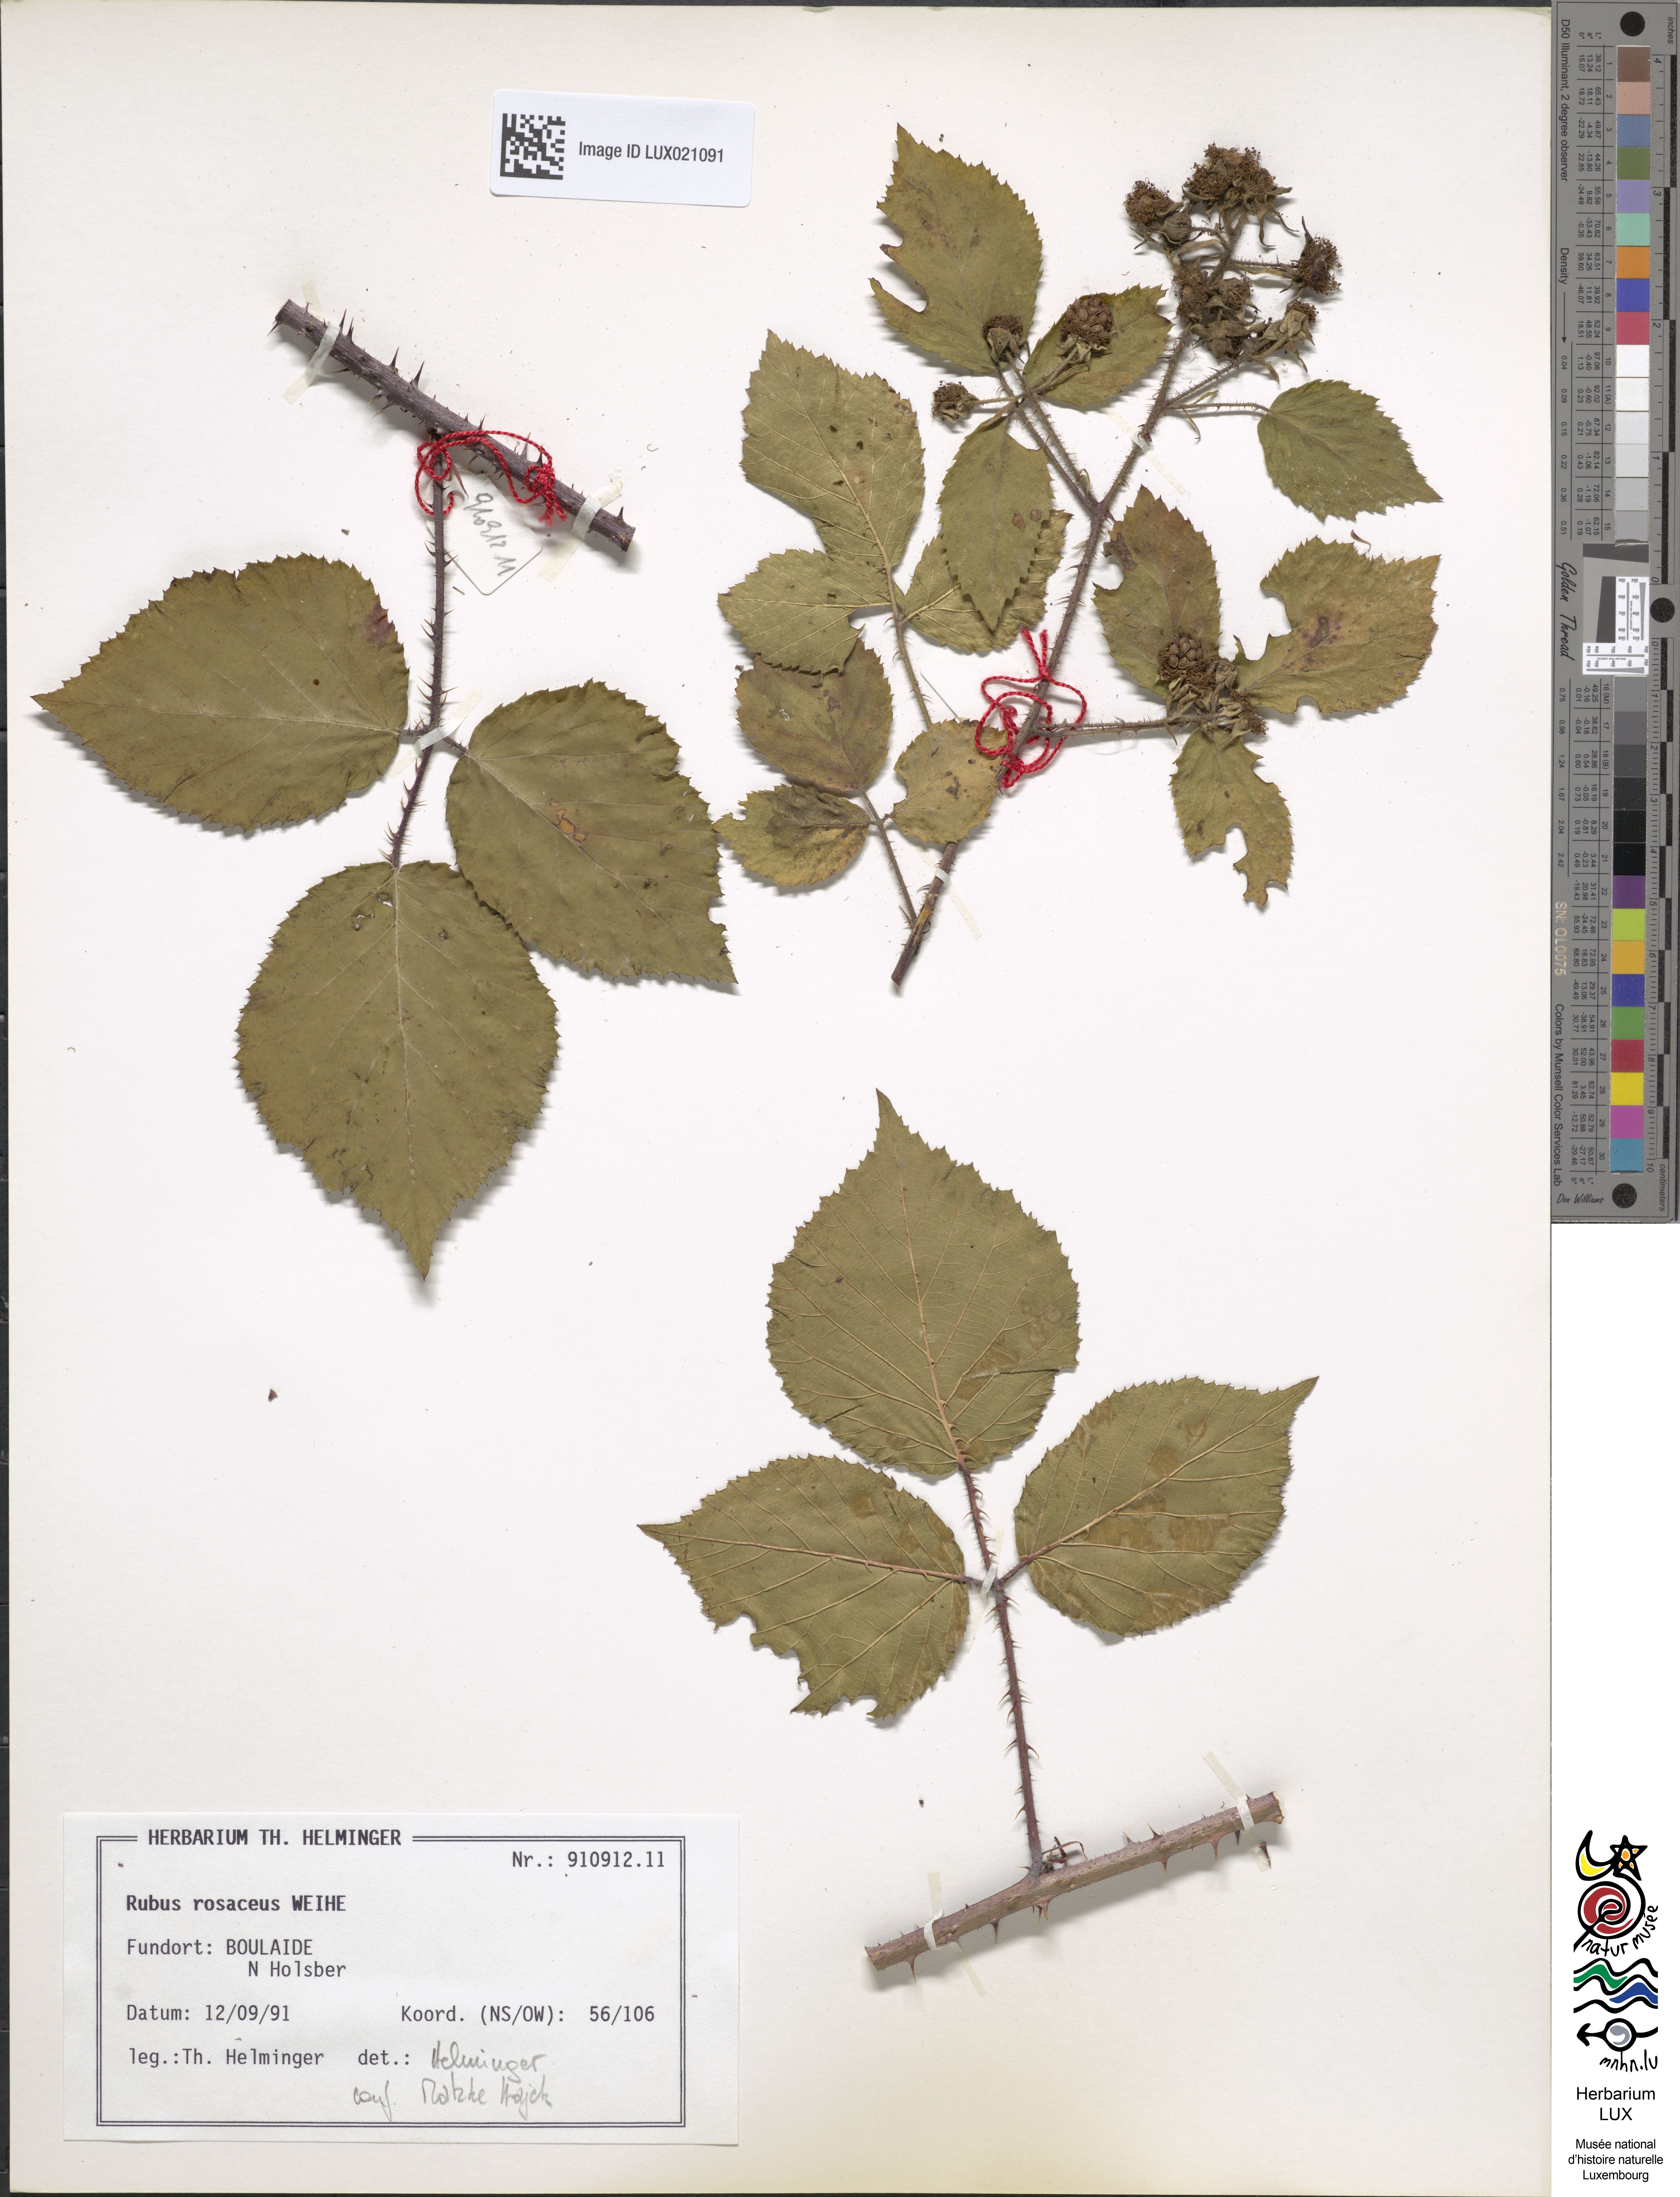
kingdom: Plantae
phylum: Tracheophyta
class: Magnoliopsida
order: Rosales
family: Rosaceae
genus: Rubus
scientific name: Rubus rosaceus
